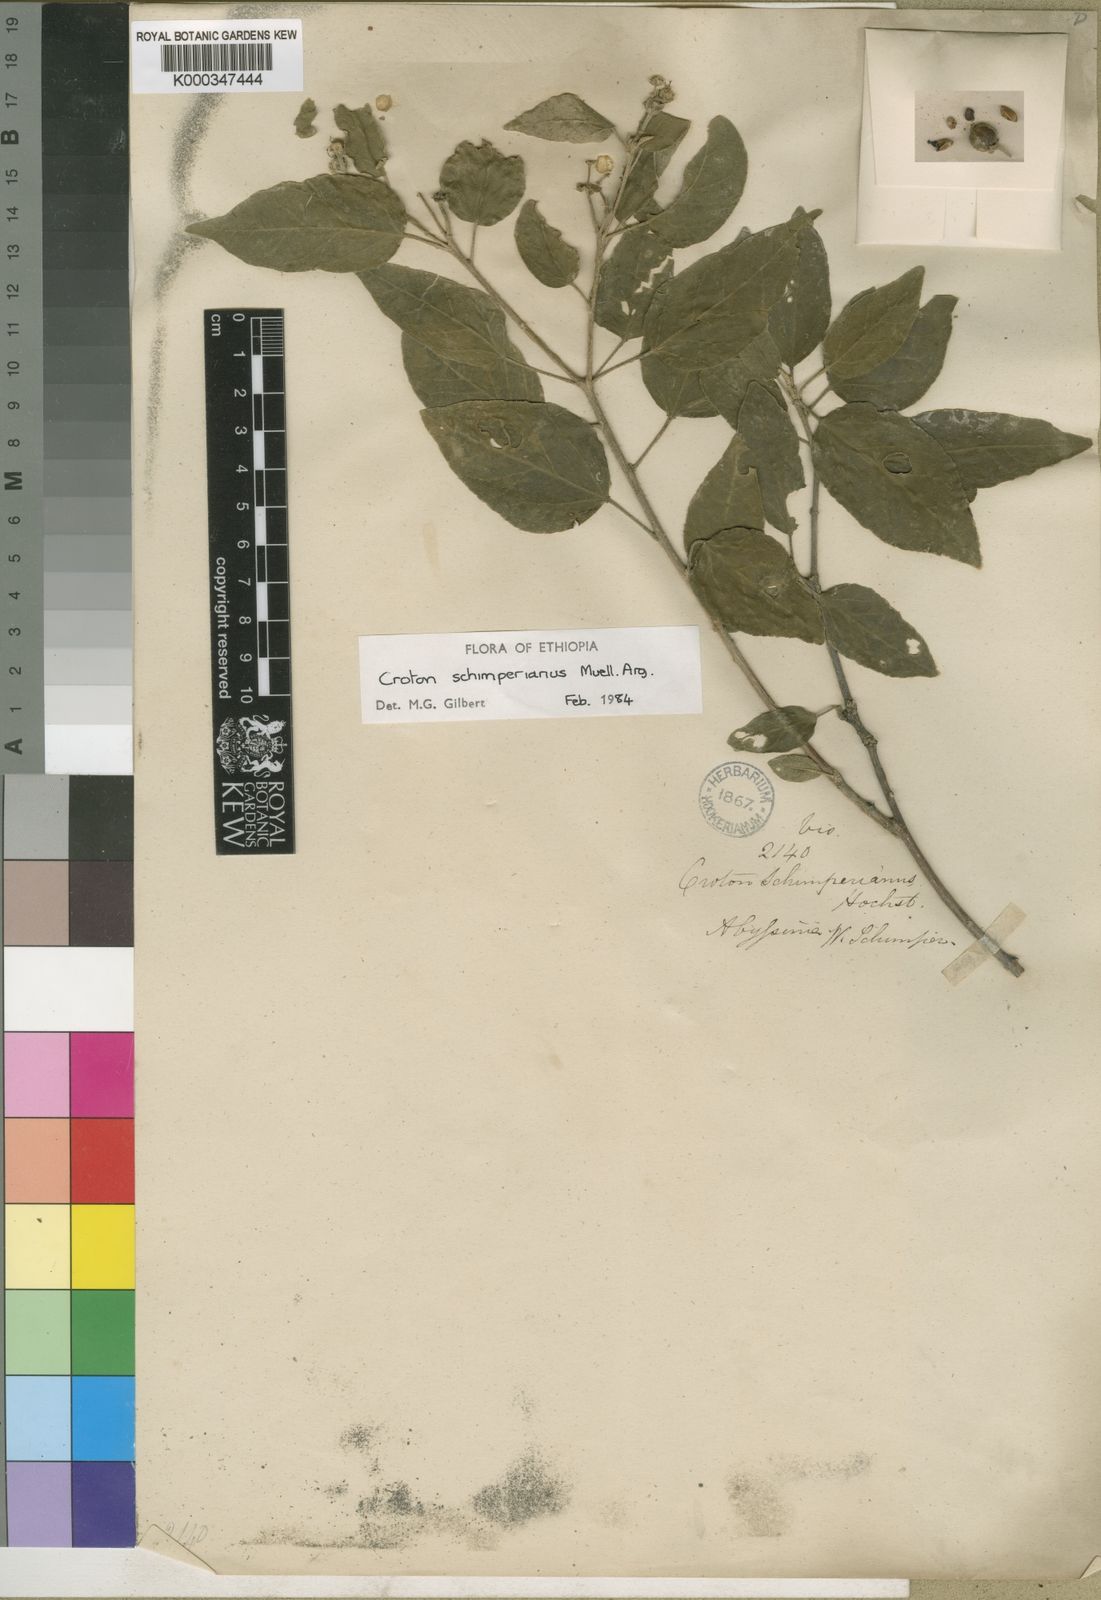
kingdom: Plantae
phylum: Tracheophyta
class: Magnoliopsida
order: Malpighiales
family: Euphorbiaceae
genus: Croton
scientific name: Croton
